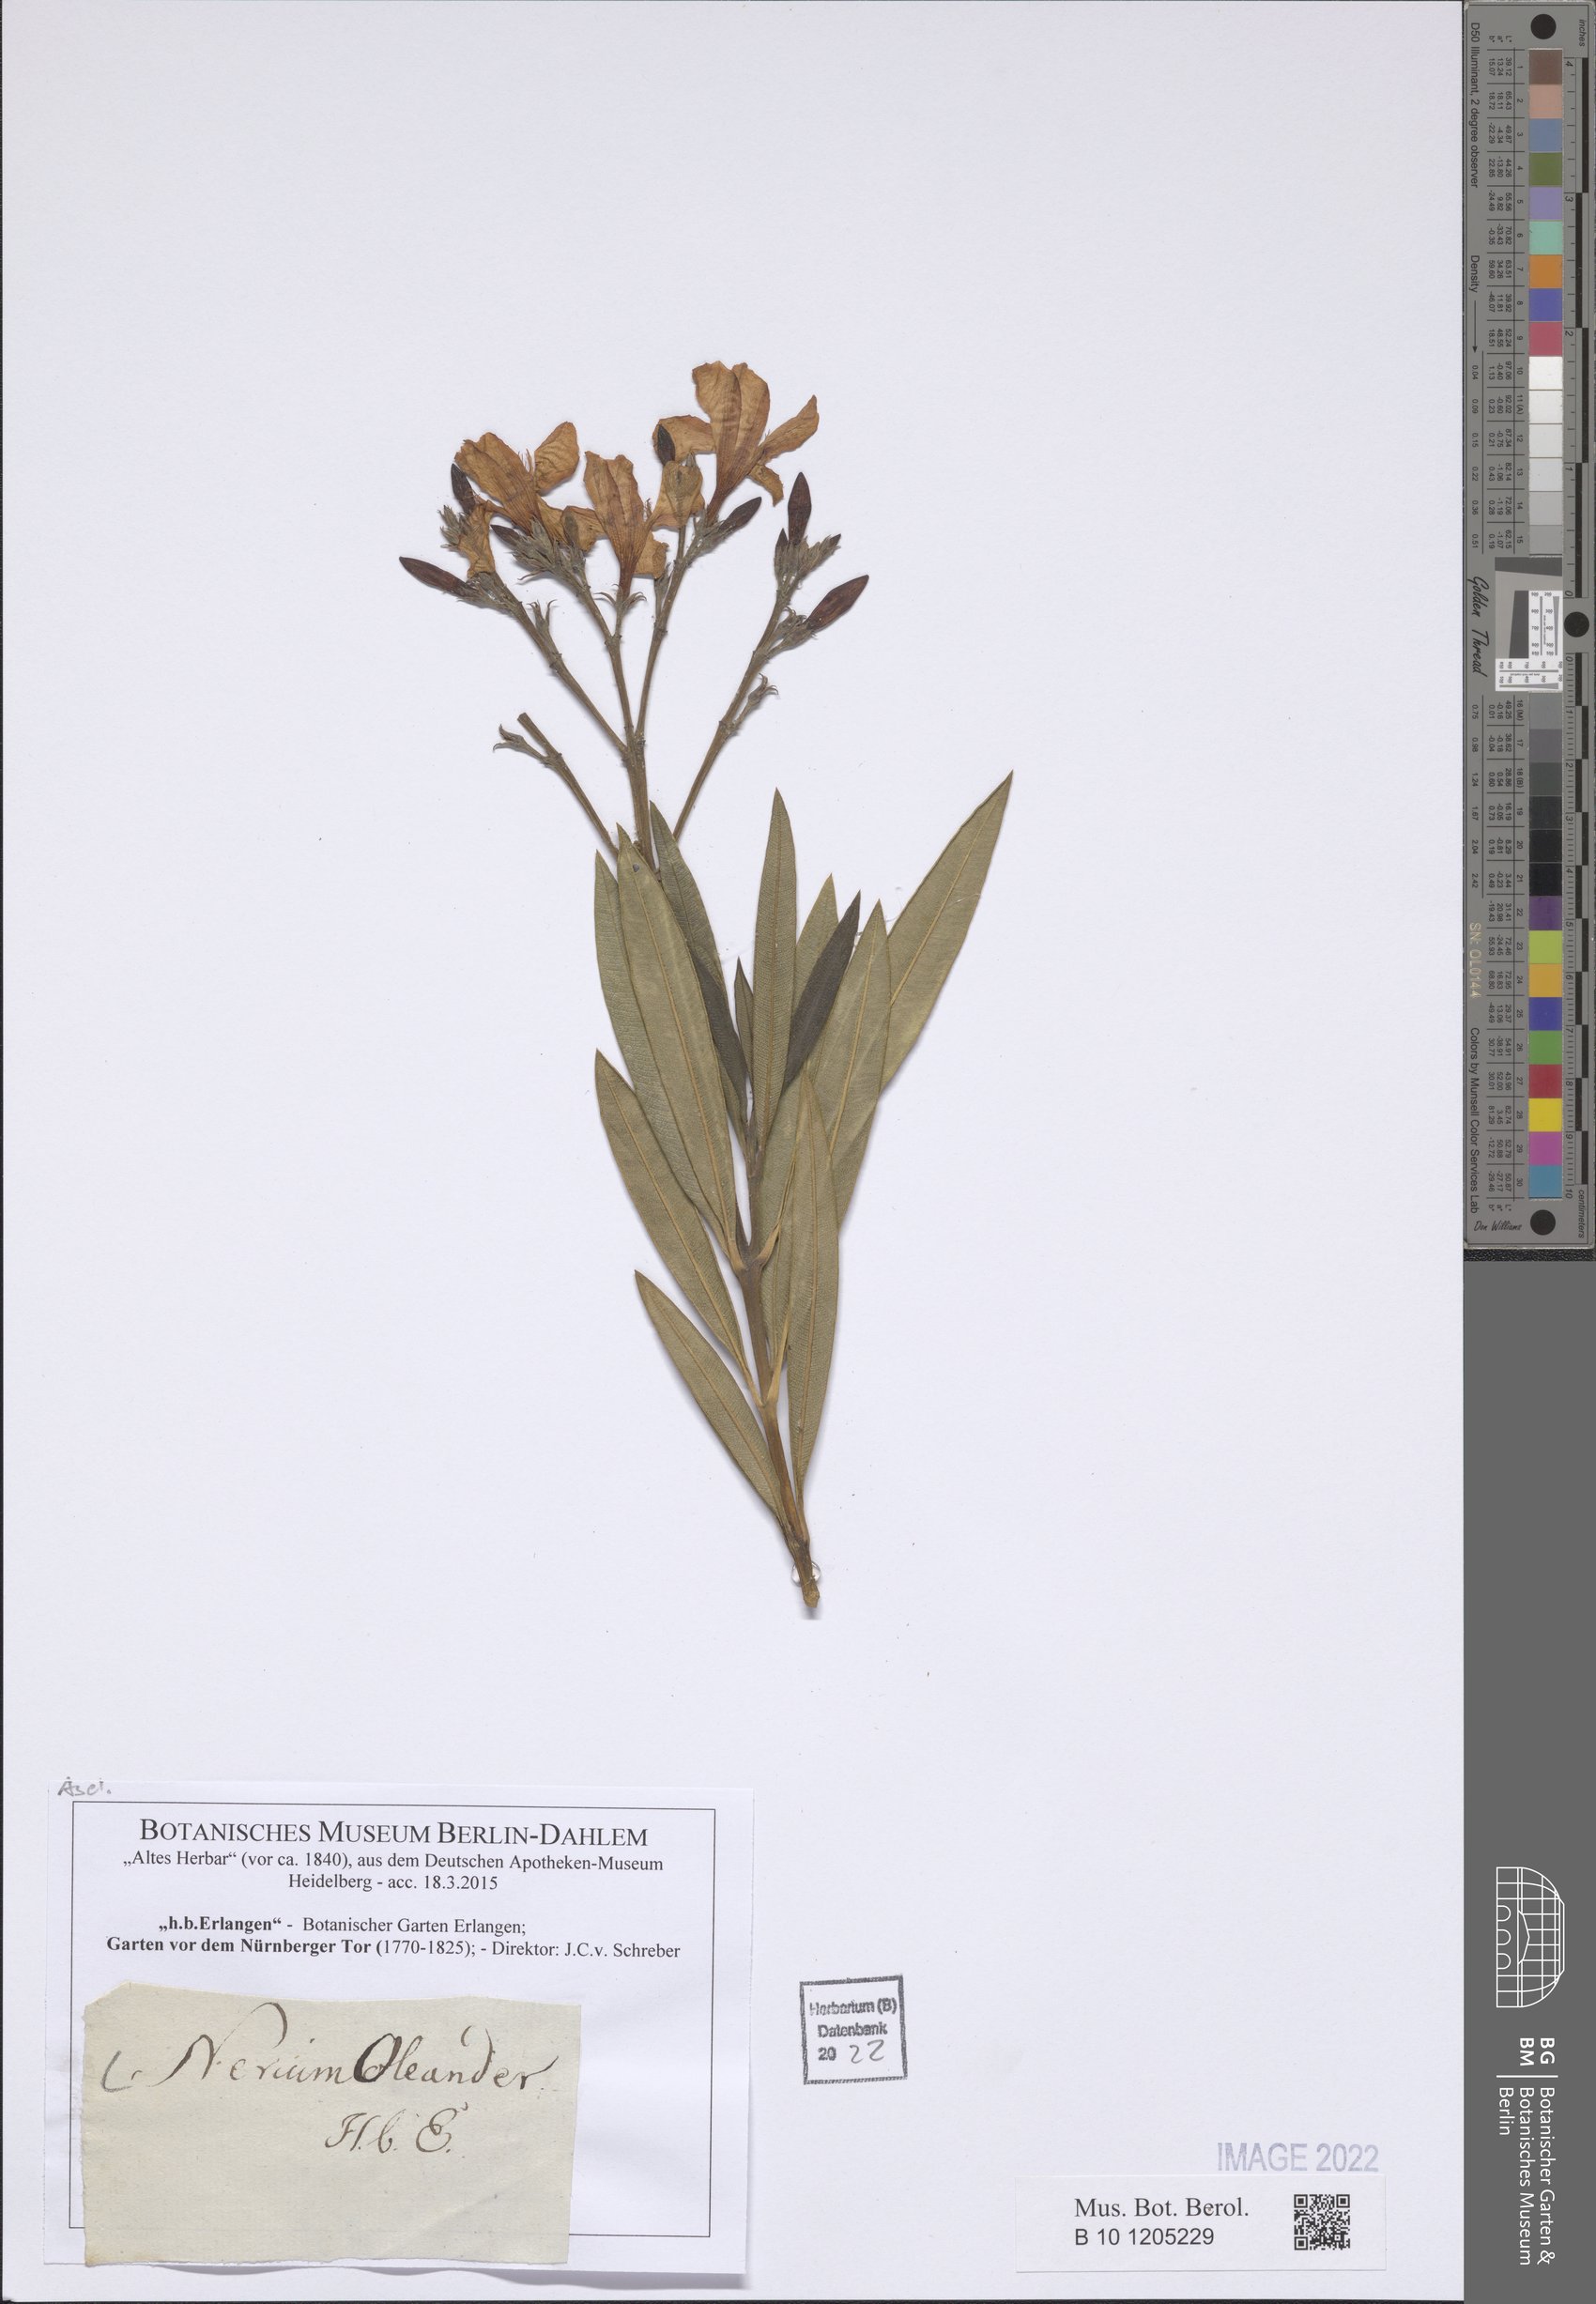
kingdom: Plantae
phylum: Tracheophyta
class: Magnoliopsida
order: Gentianales
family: Apocynaceae
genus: Nerium
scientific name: Nerium oleander
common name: Oleander
